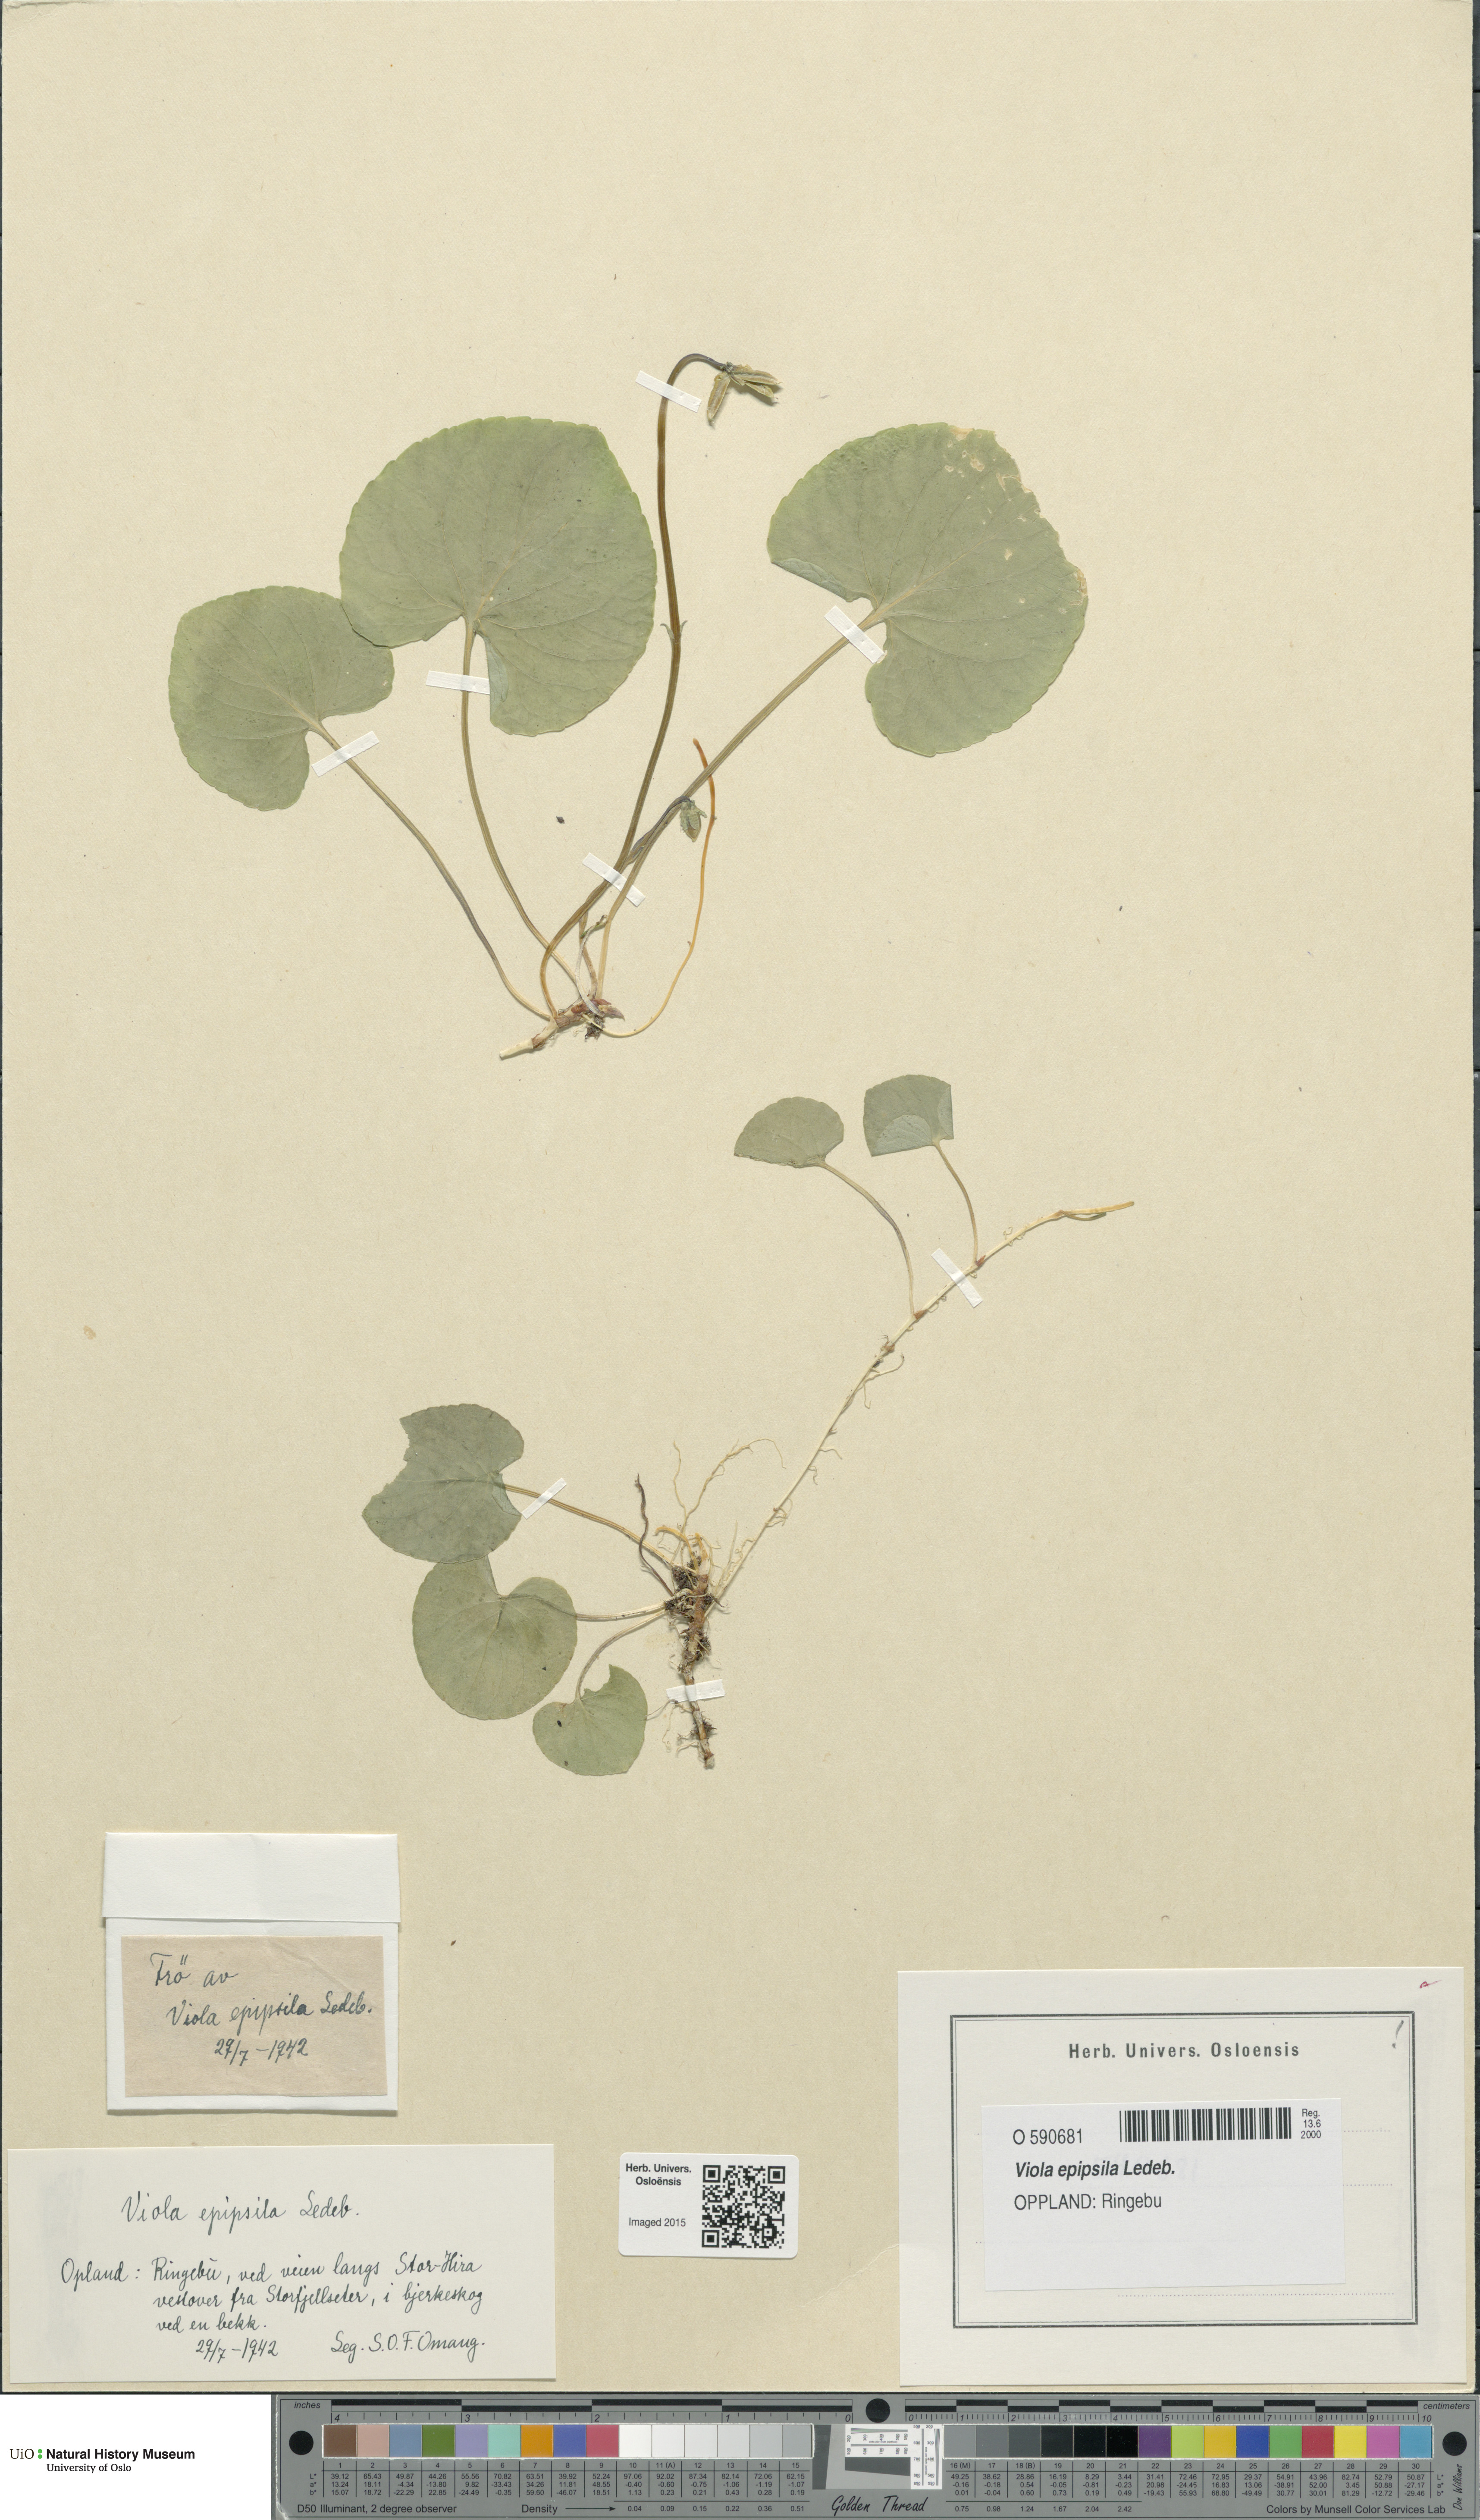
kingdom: Plantae
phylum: Tracheophyta
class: Magnoliopsida
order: Malpighiales
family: Violaceae
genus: Viola
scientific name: Viola epipsila
